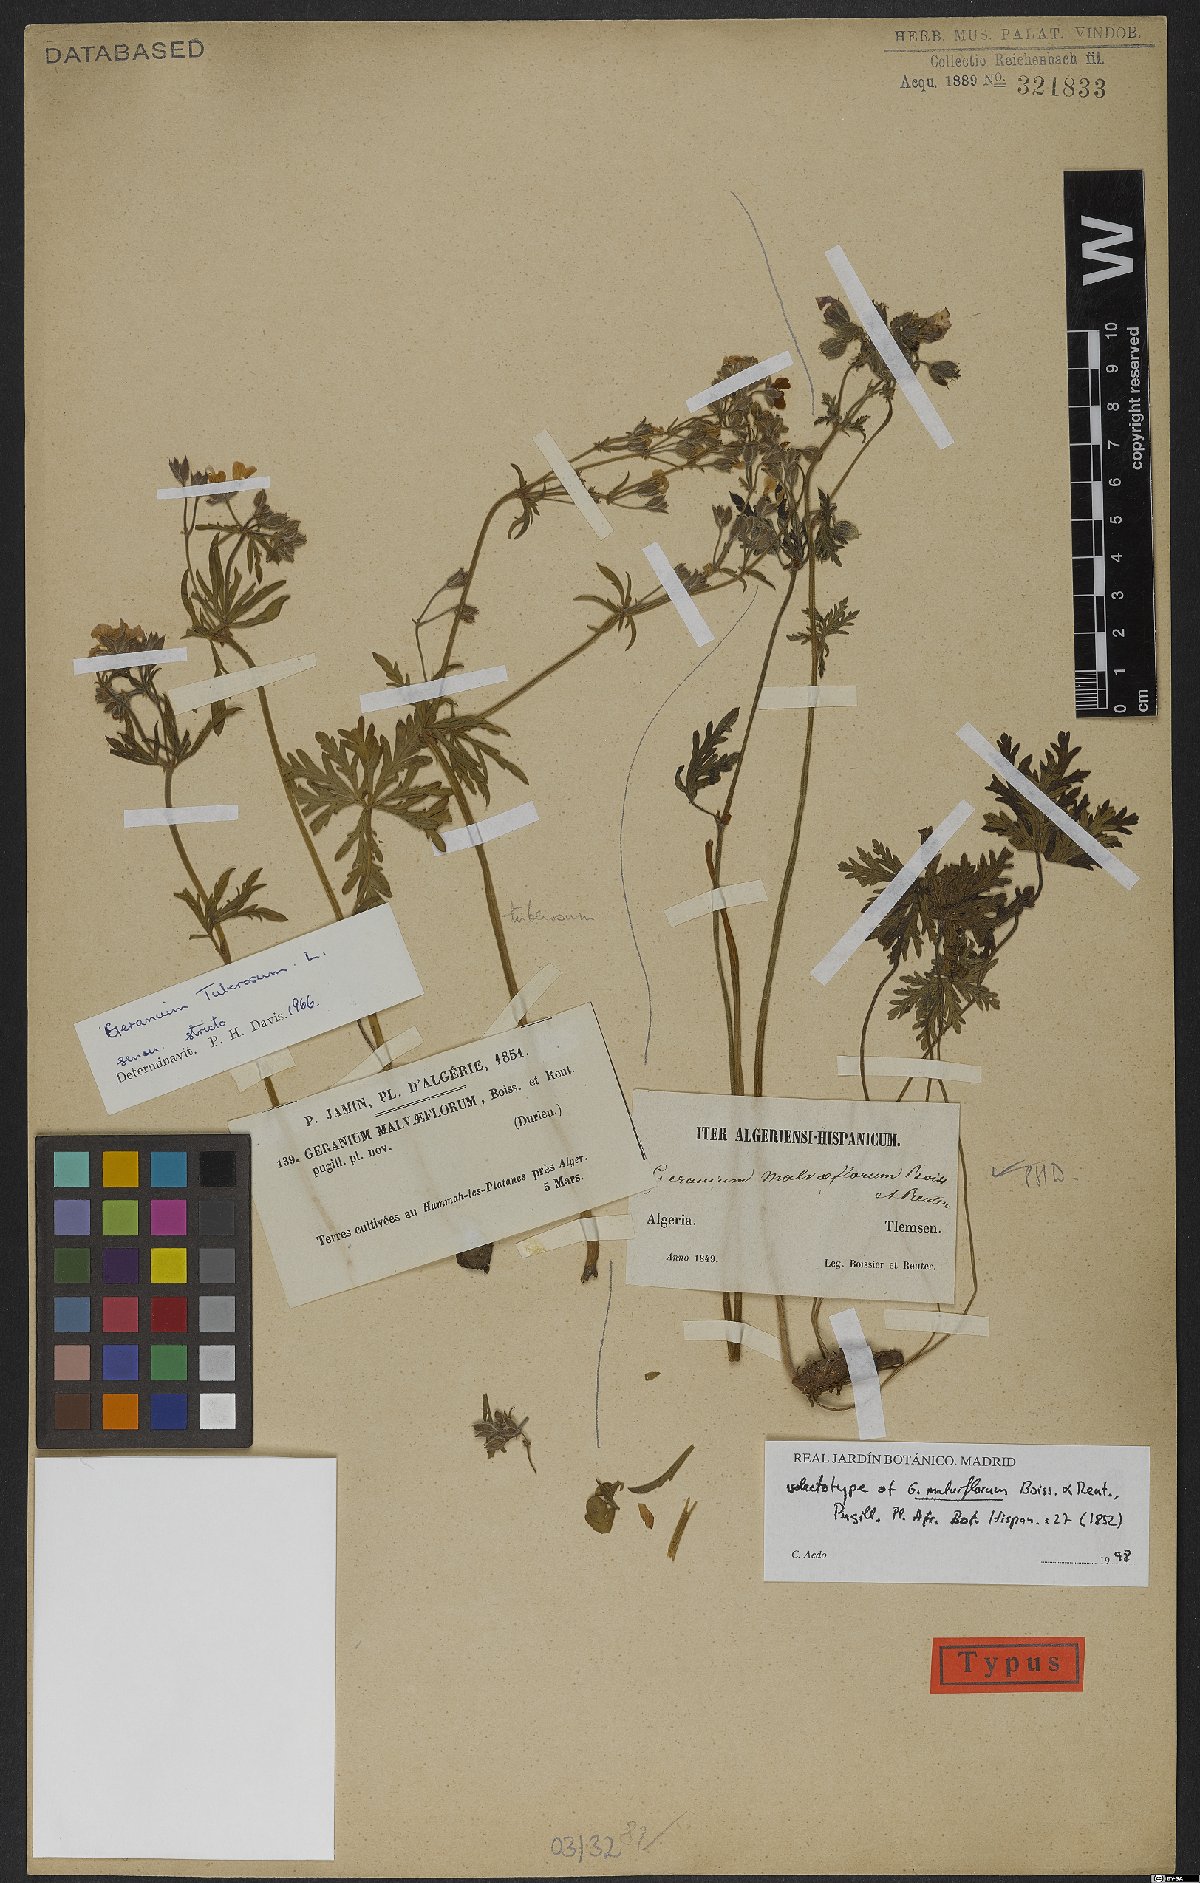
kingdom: Plantae
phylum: Tracheophyta
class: Magnoliopsida
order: Geraniales
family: Geraniaceae
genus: Geranium
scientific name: Geranium malviflorum
